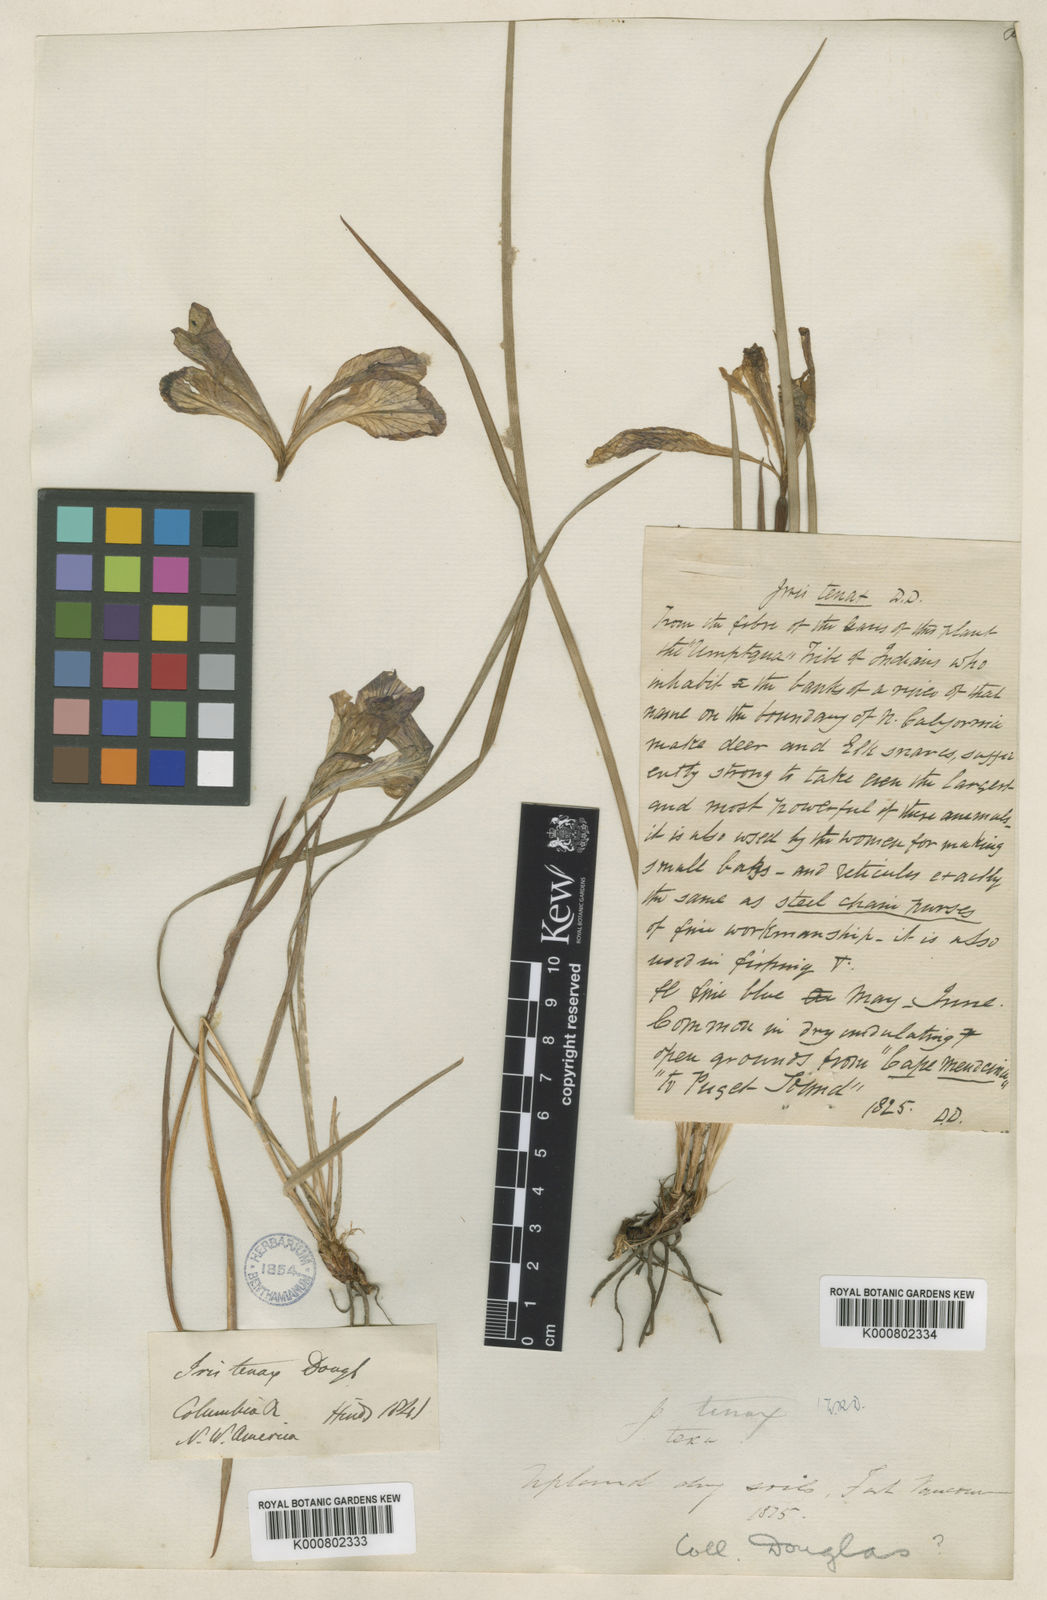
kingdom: Plantae
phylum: Tracheophyta
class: Liliopsida
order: Asparagales
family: Iridaceae
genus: Iris
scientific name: Iris tenax
